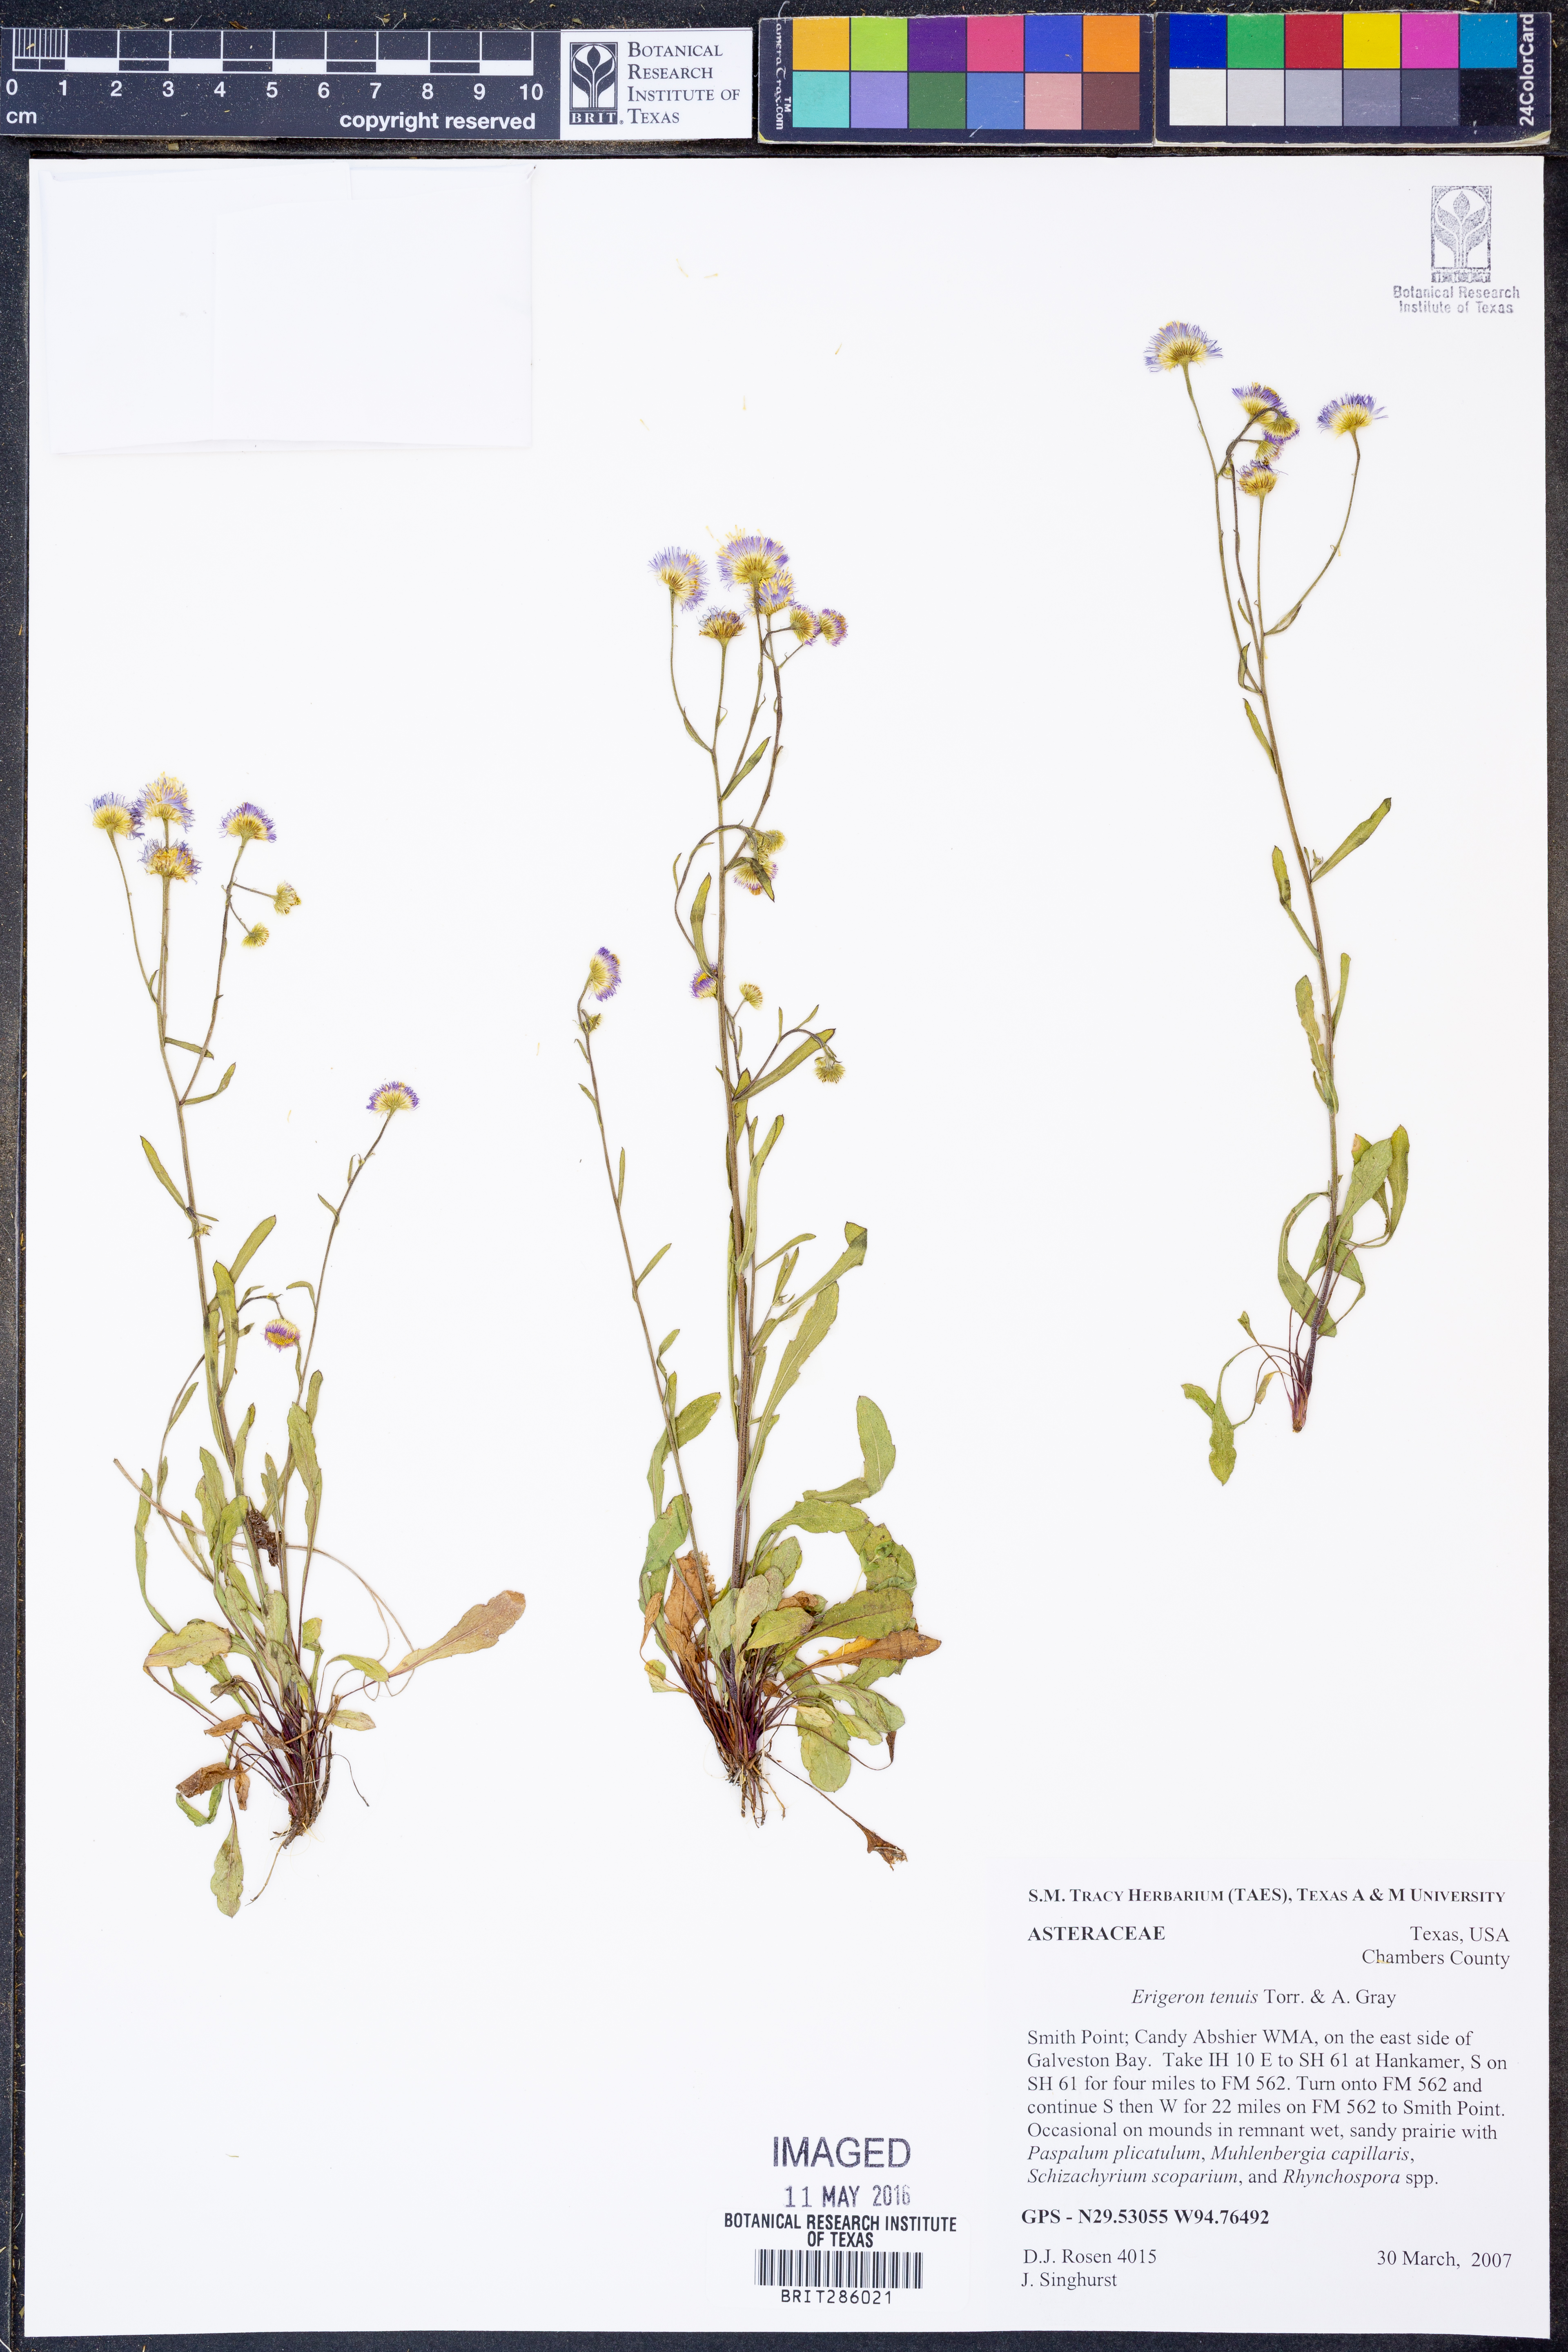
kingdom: Plantae
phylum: Tracheophyta
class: Magnoliopsida
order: Asterales
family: Asteraceae
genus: Erigeron
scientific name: Erigeron tenuis
